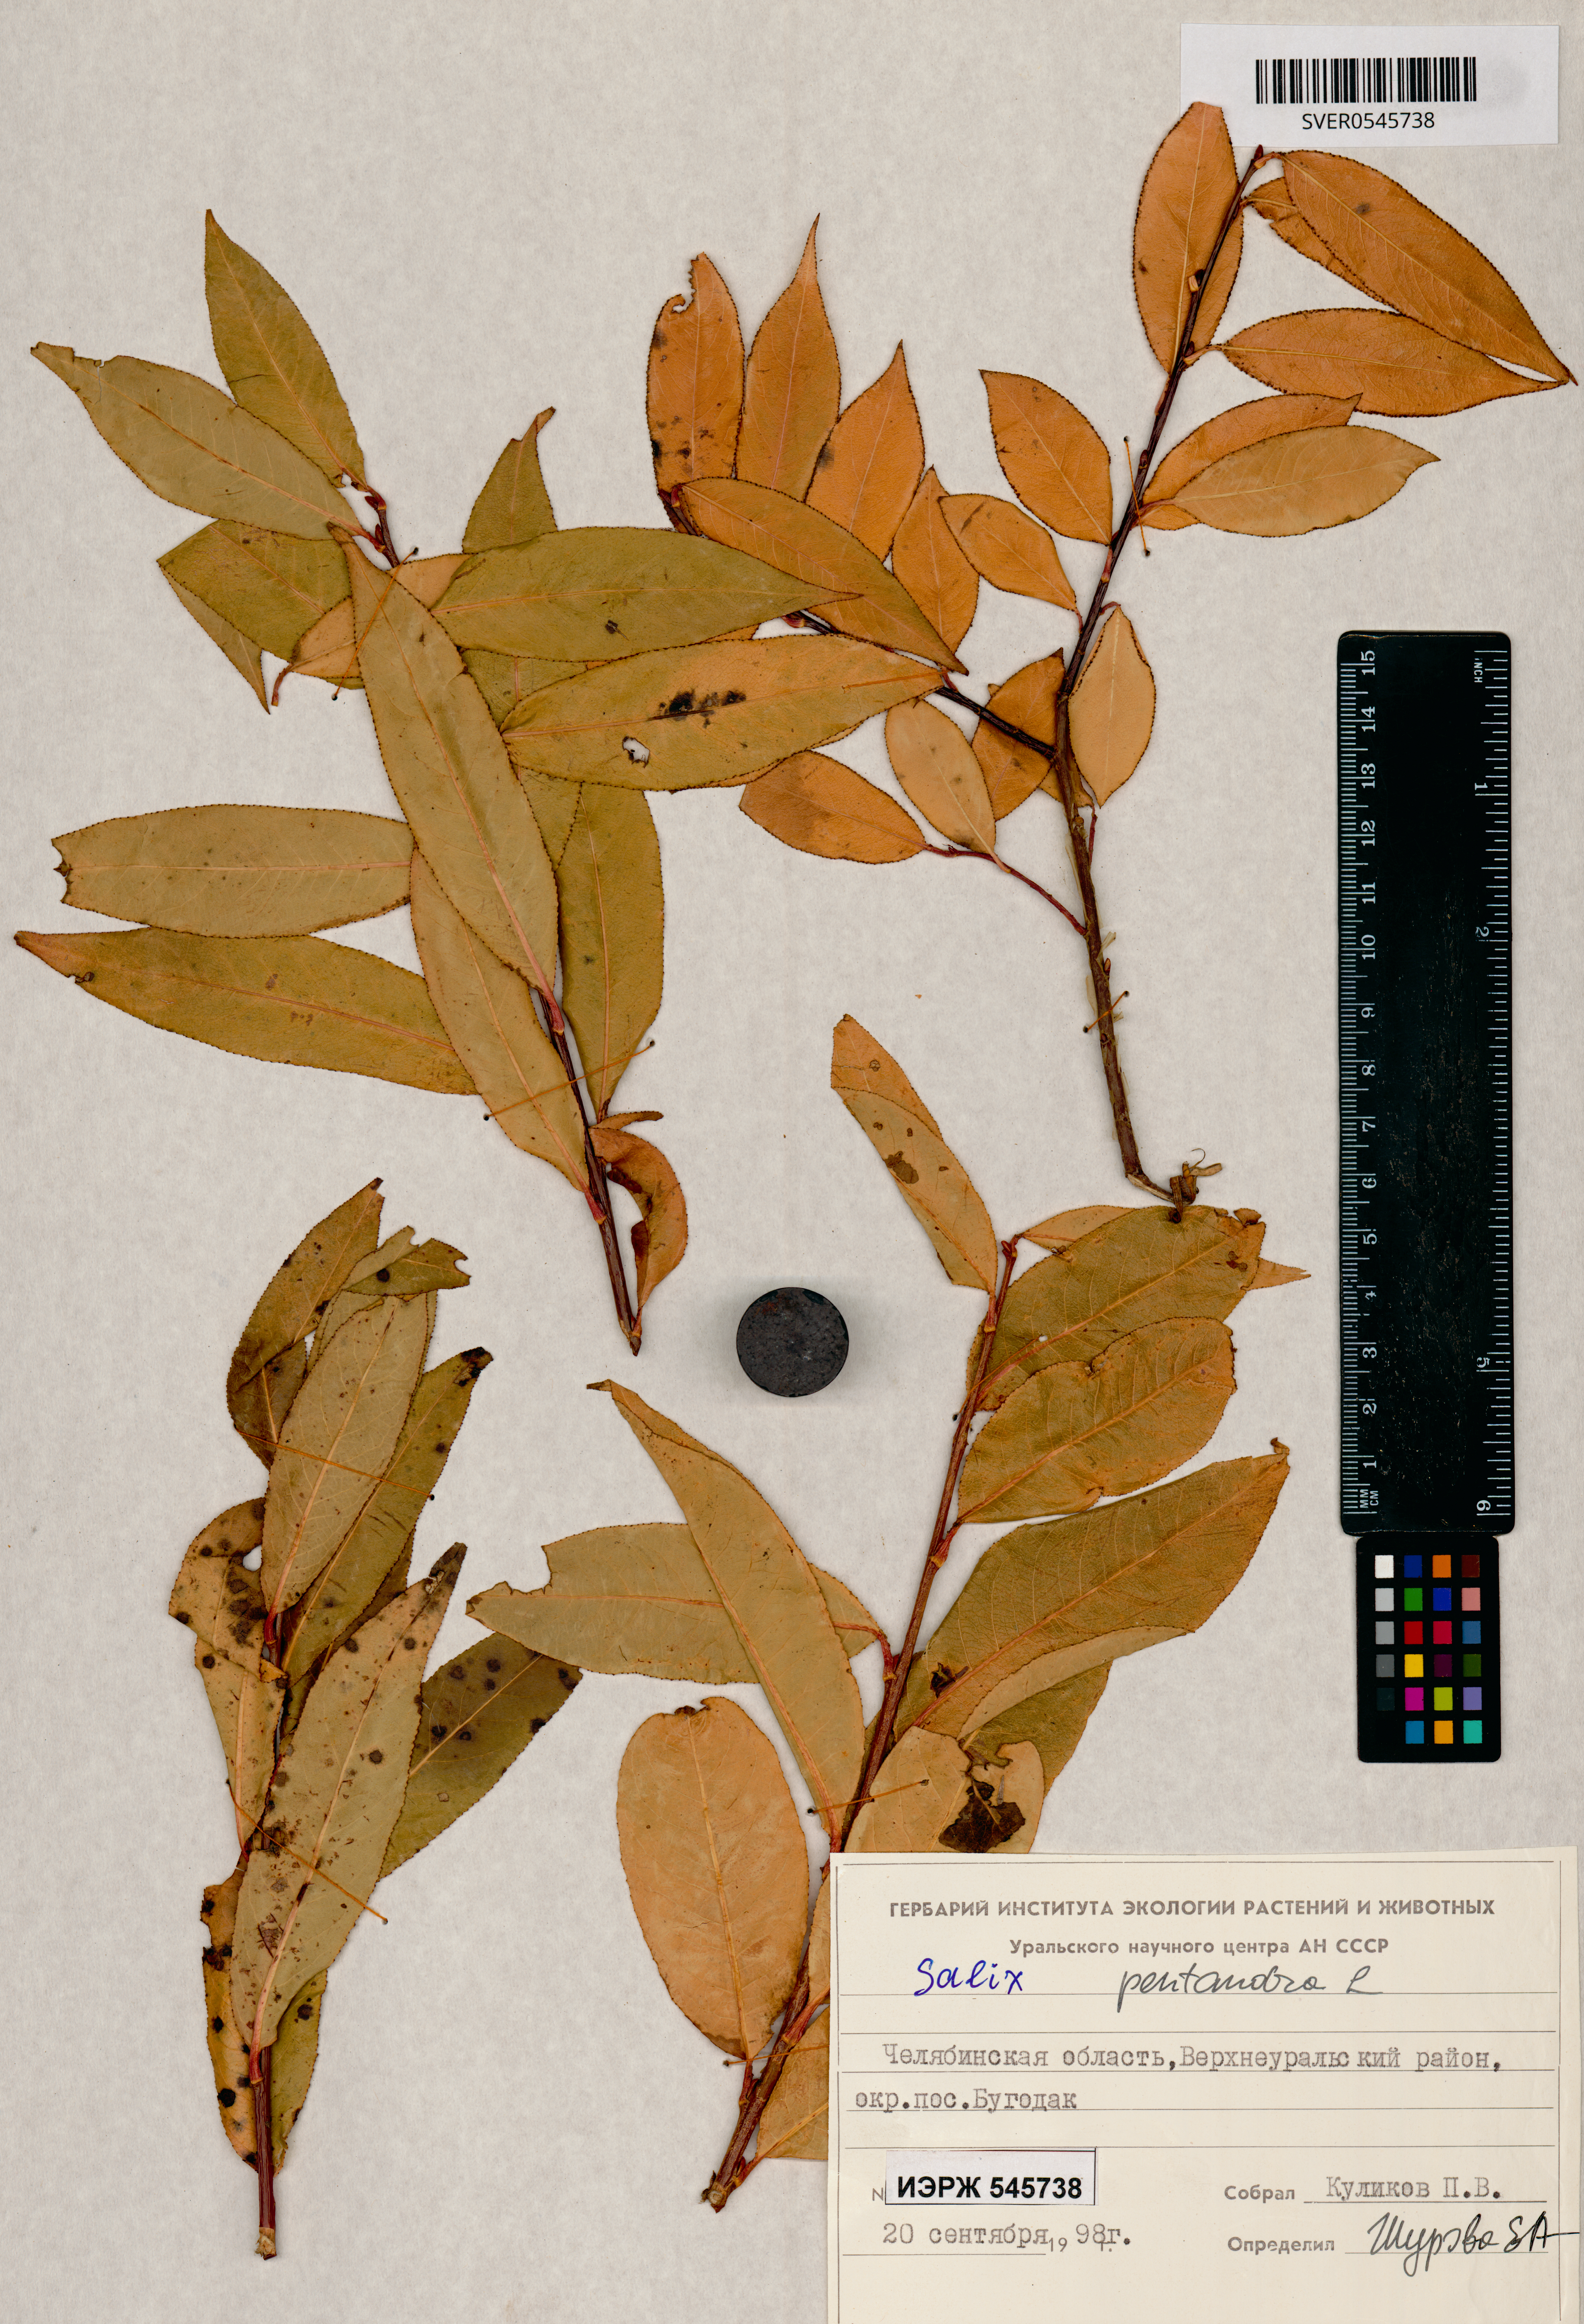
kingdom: Plantae
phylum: Tracheophyta
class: Magnoliopsida
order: Malpighiales
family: Salicaceae
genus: Salix
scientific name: Salix pentandra
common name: Bay willow
